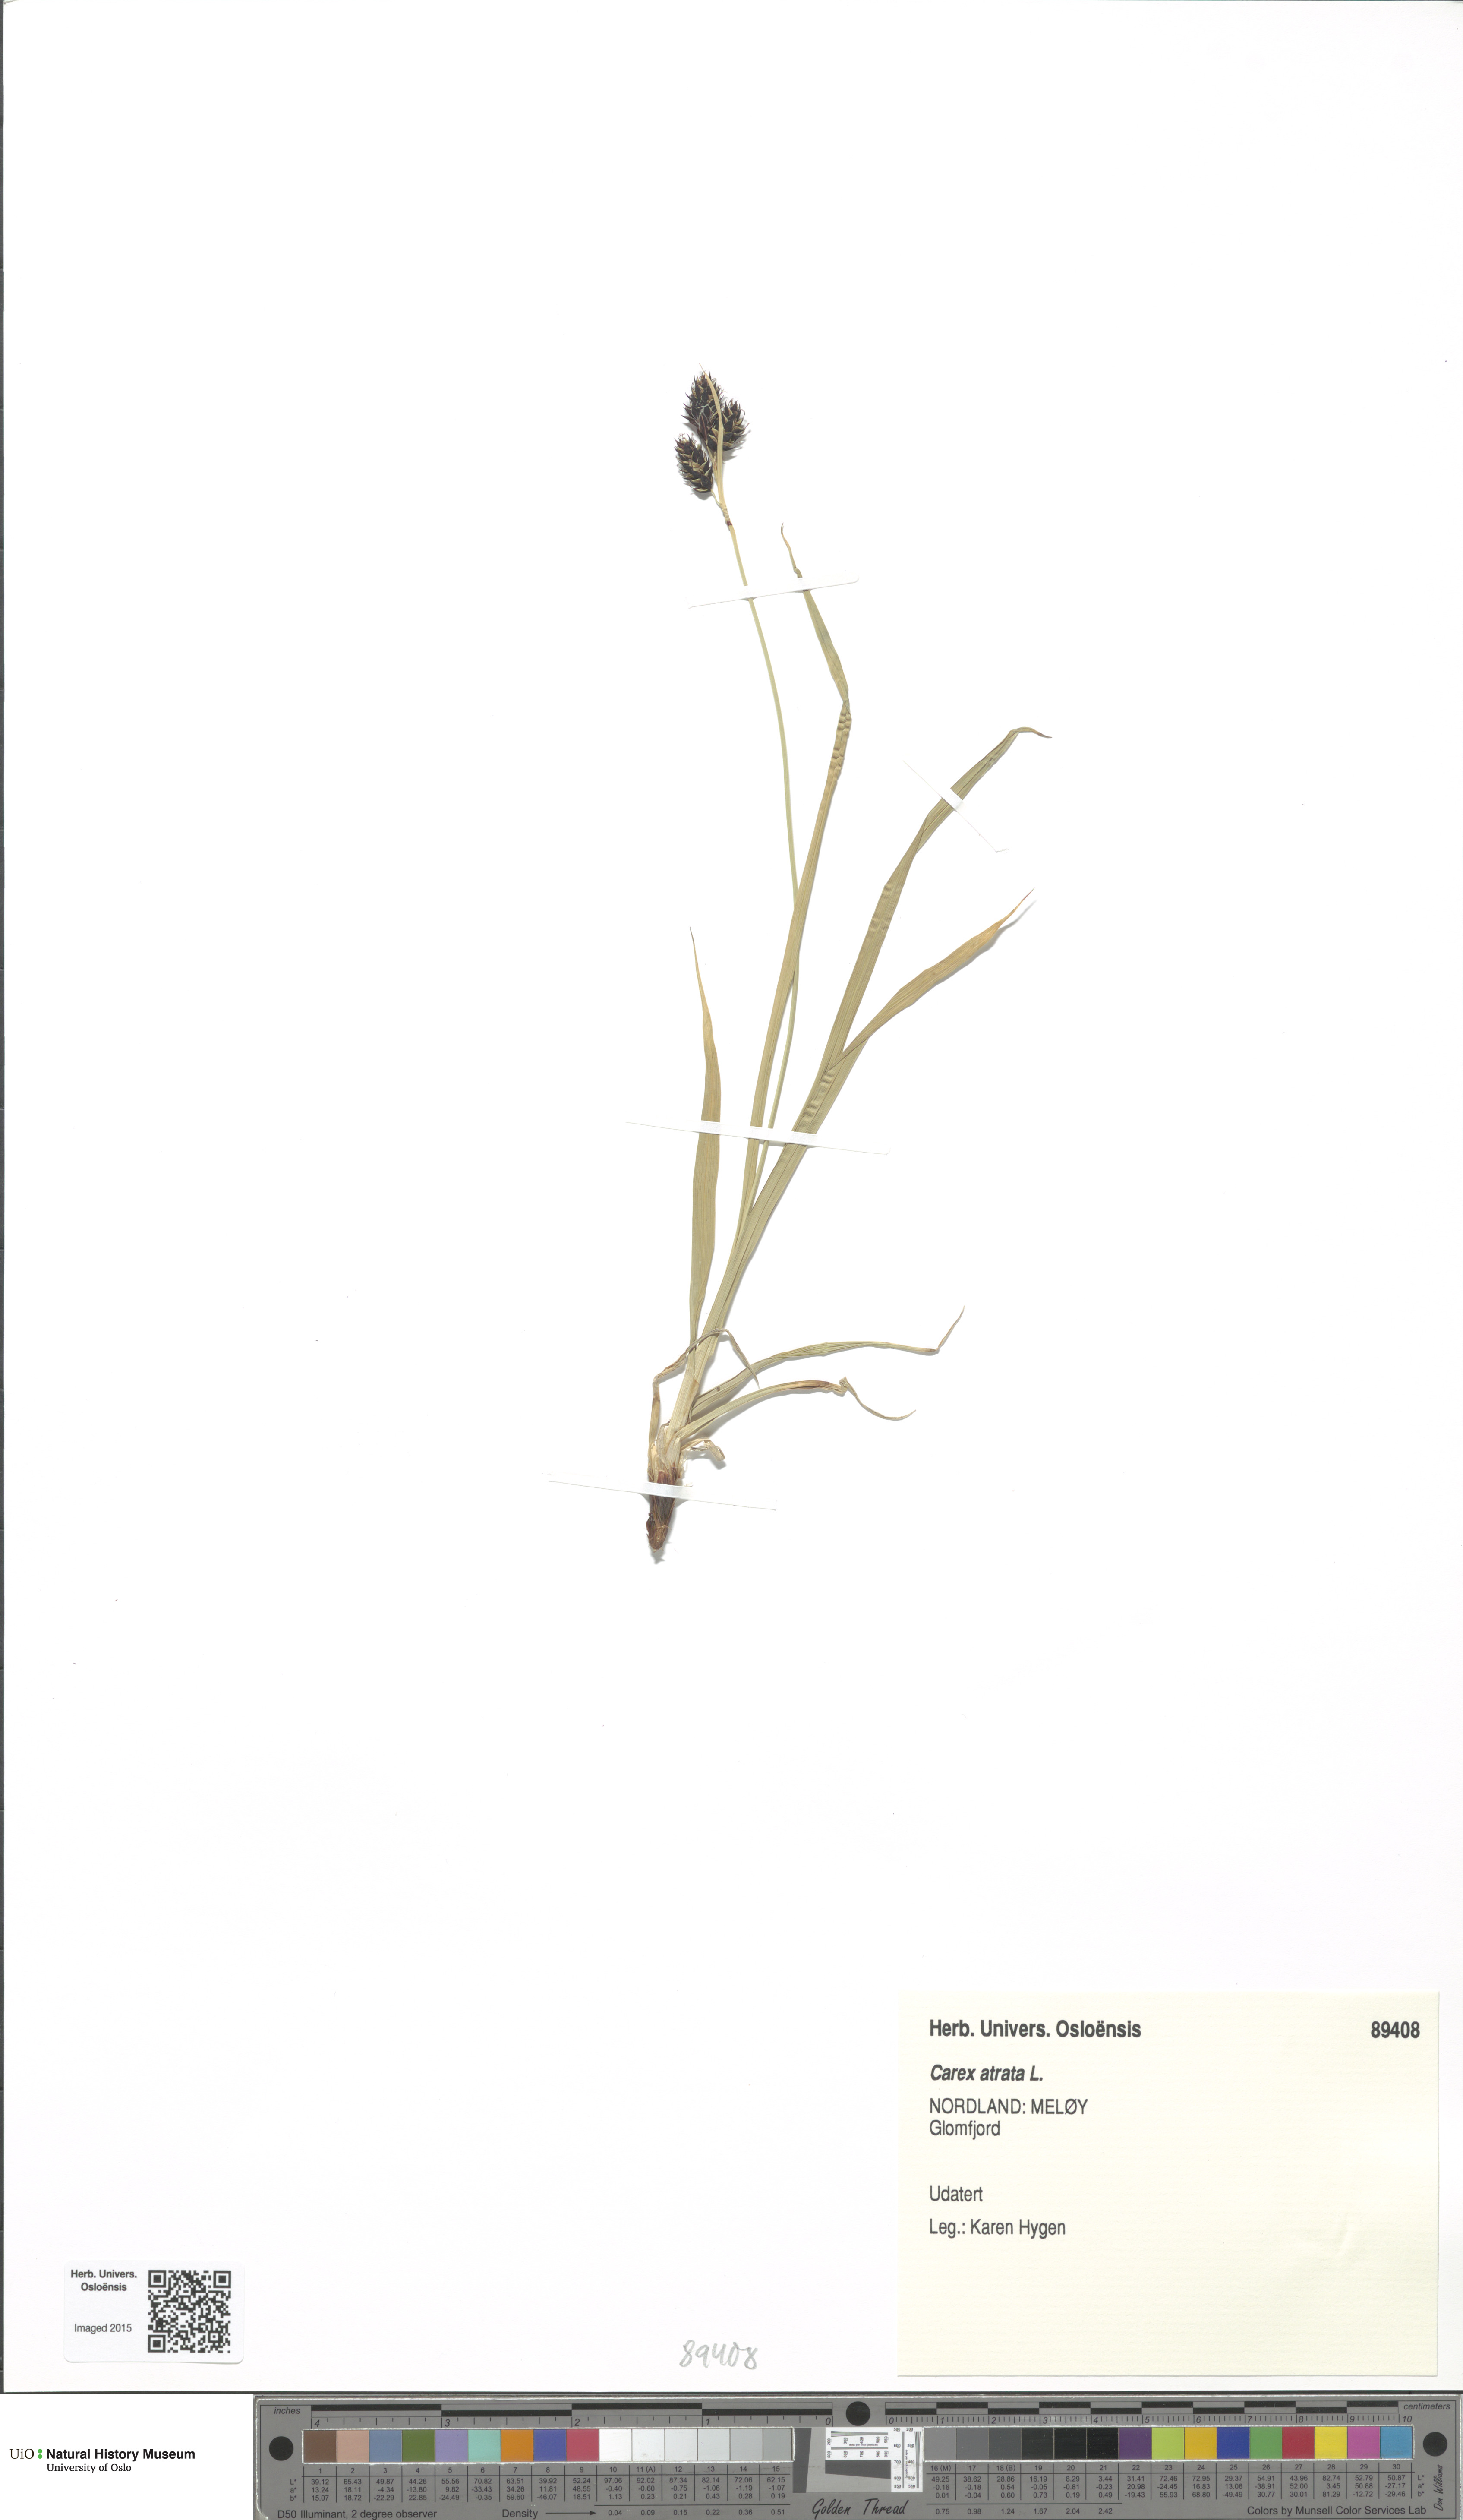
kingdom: Plantae
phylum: Tracheophyta
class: Liliopsida
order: Poales
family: Cyperaceae
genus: Carex
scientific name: Carex atrata
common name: Black alpine sedge
